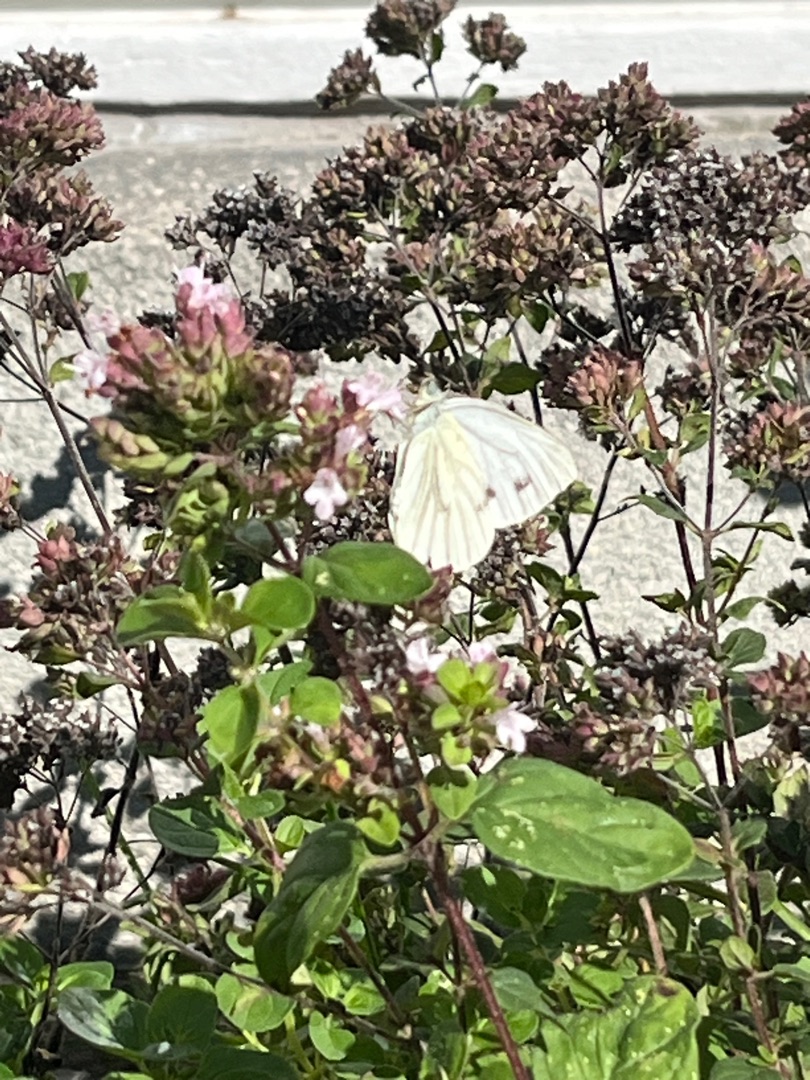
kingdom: Animalia
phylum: Arthropoda
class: Insecta
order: Lepidoptera
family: Pieridae
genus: Pieris
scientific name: Pieris napi
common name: Grønåret kålsommerfugl
